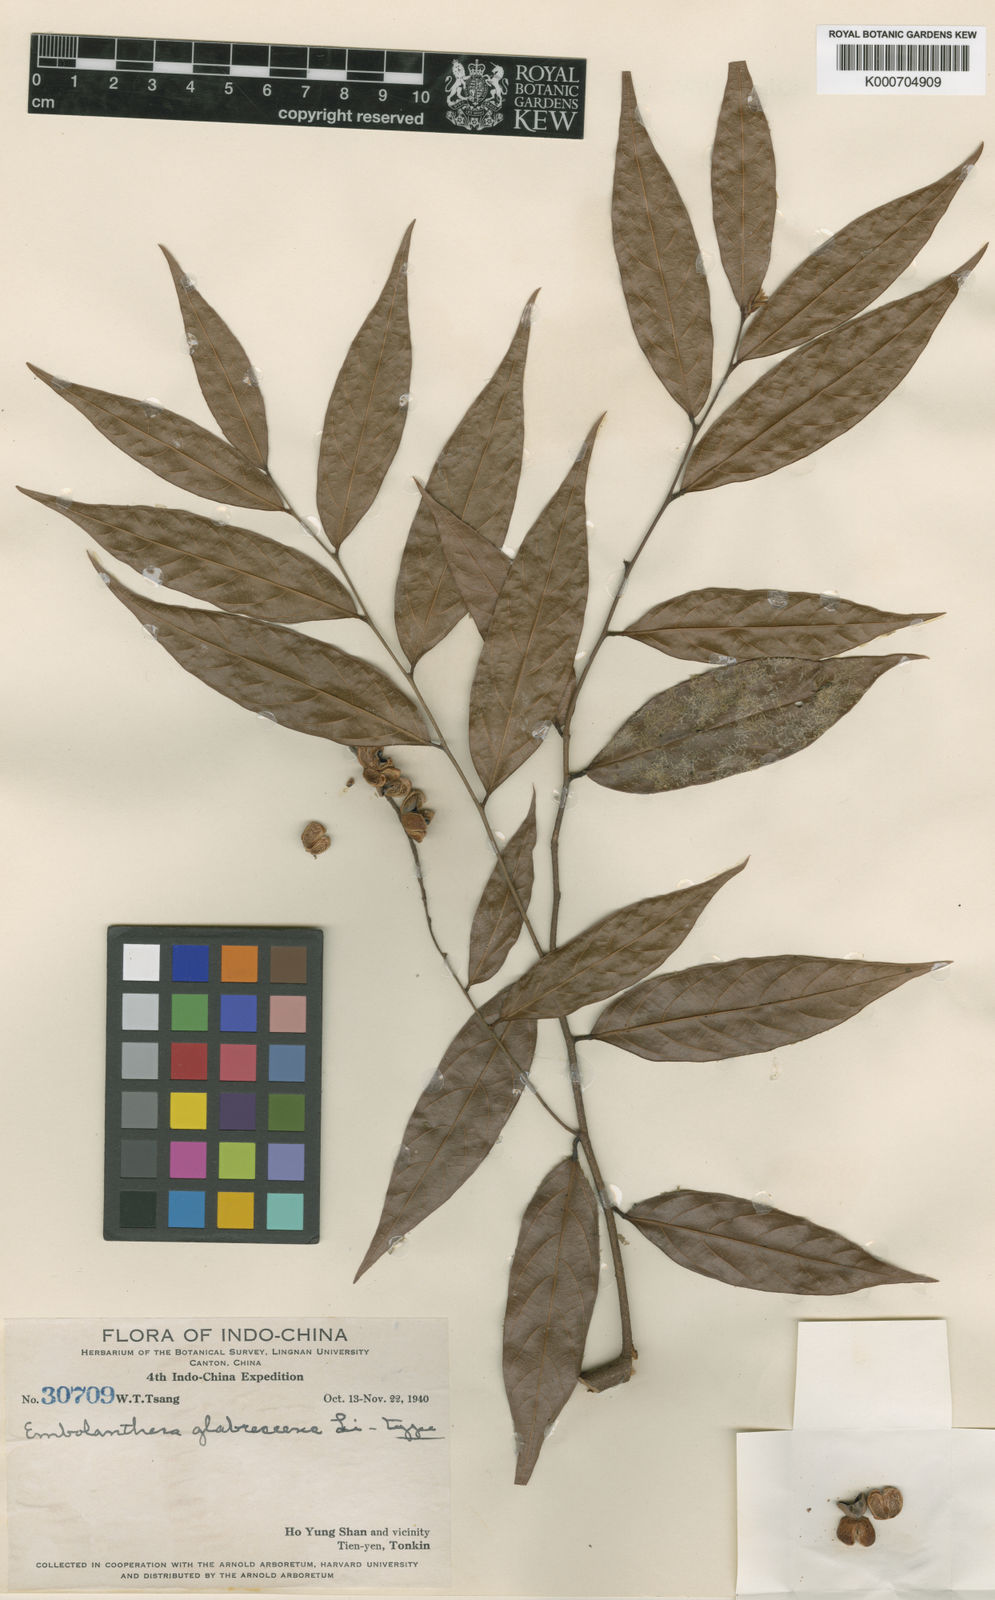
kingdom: Plantae
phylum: Tracheophyta
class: Magnoliopsida
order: Saxifragales
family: Hamamelidaceae
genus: Embolanthera
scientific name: Embolanthera glabrescens
